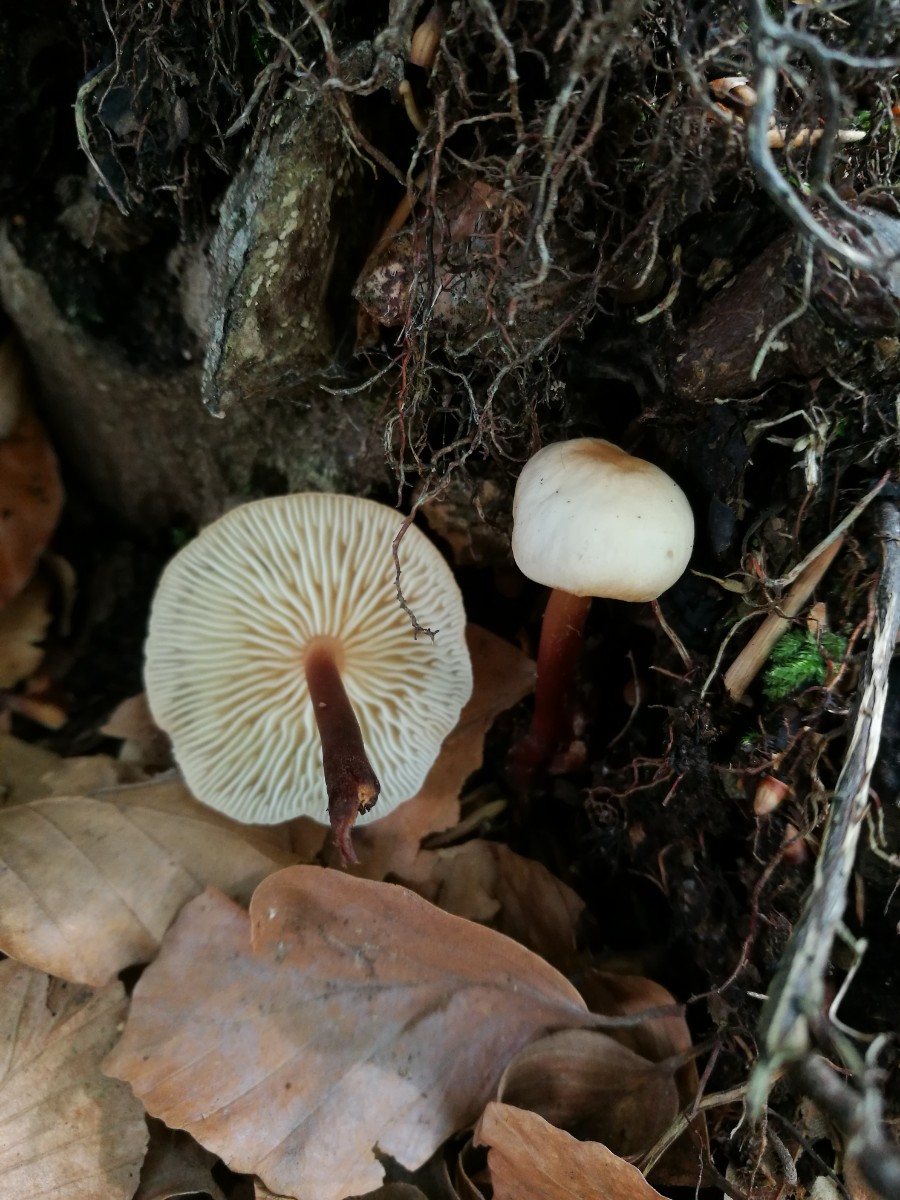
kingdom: Fungi
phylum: Basidiomycota
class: Agaricomycetes
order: Agaricales
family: Omphalotaceae
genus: Gymnopus
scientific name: Gymnopus erythropus
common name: rødstokket fladhat
